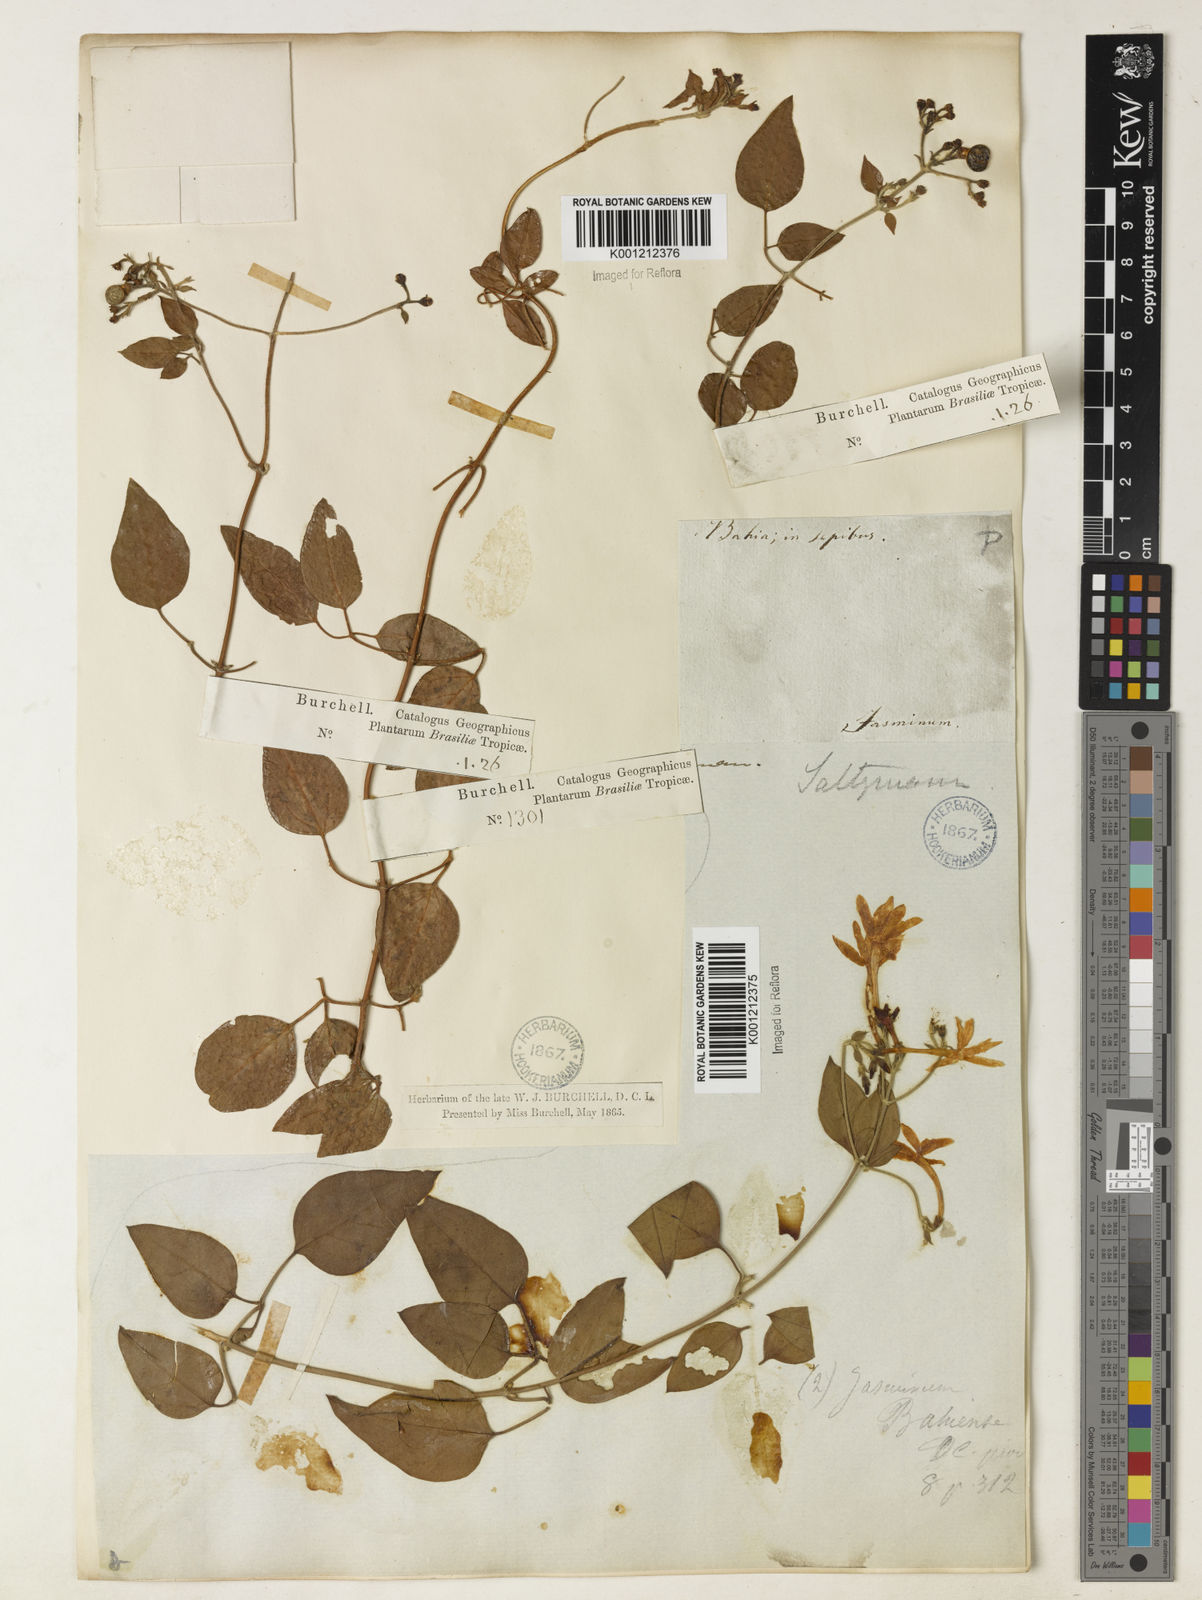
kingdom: Plantae
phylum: Tracheophyta
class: Magnoliopsida
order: Lamiales
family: Oleaceae
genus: Jasminum
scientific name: Jasminum fluminense
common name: Brazilian jasmine
